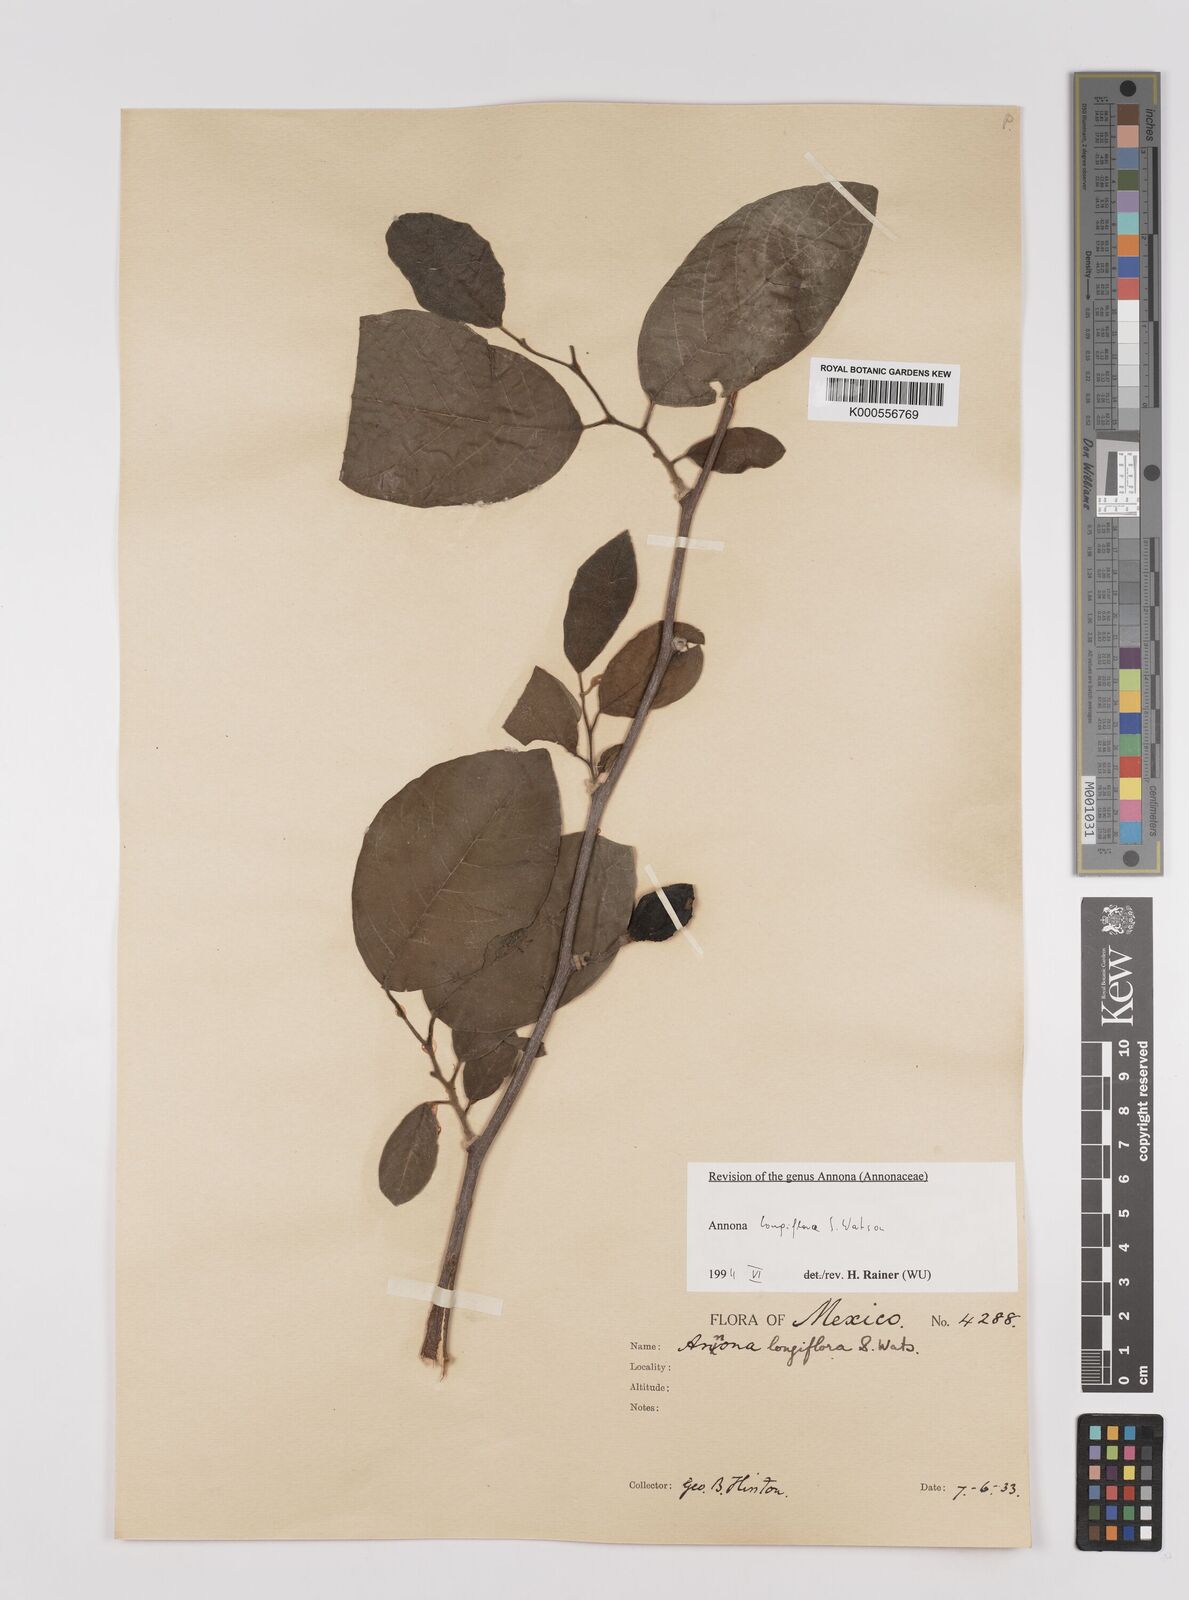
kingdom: Plantae
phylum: Tracheophyta
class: Magnoliopsida
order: Magnoliales
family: Annonaceae
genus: Annona
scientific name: Annona longiflora
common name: Wild cherimoya of jalisco
